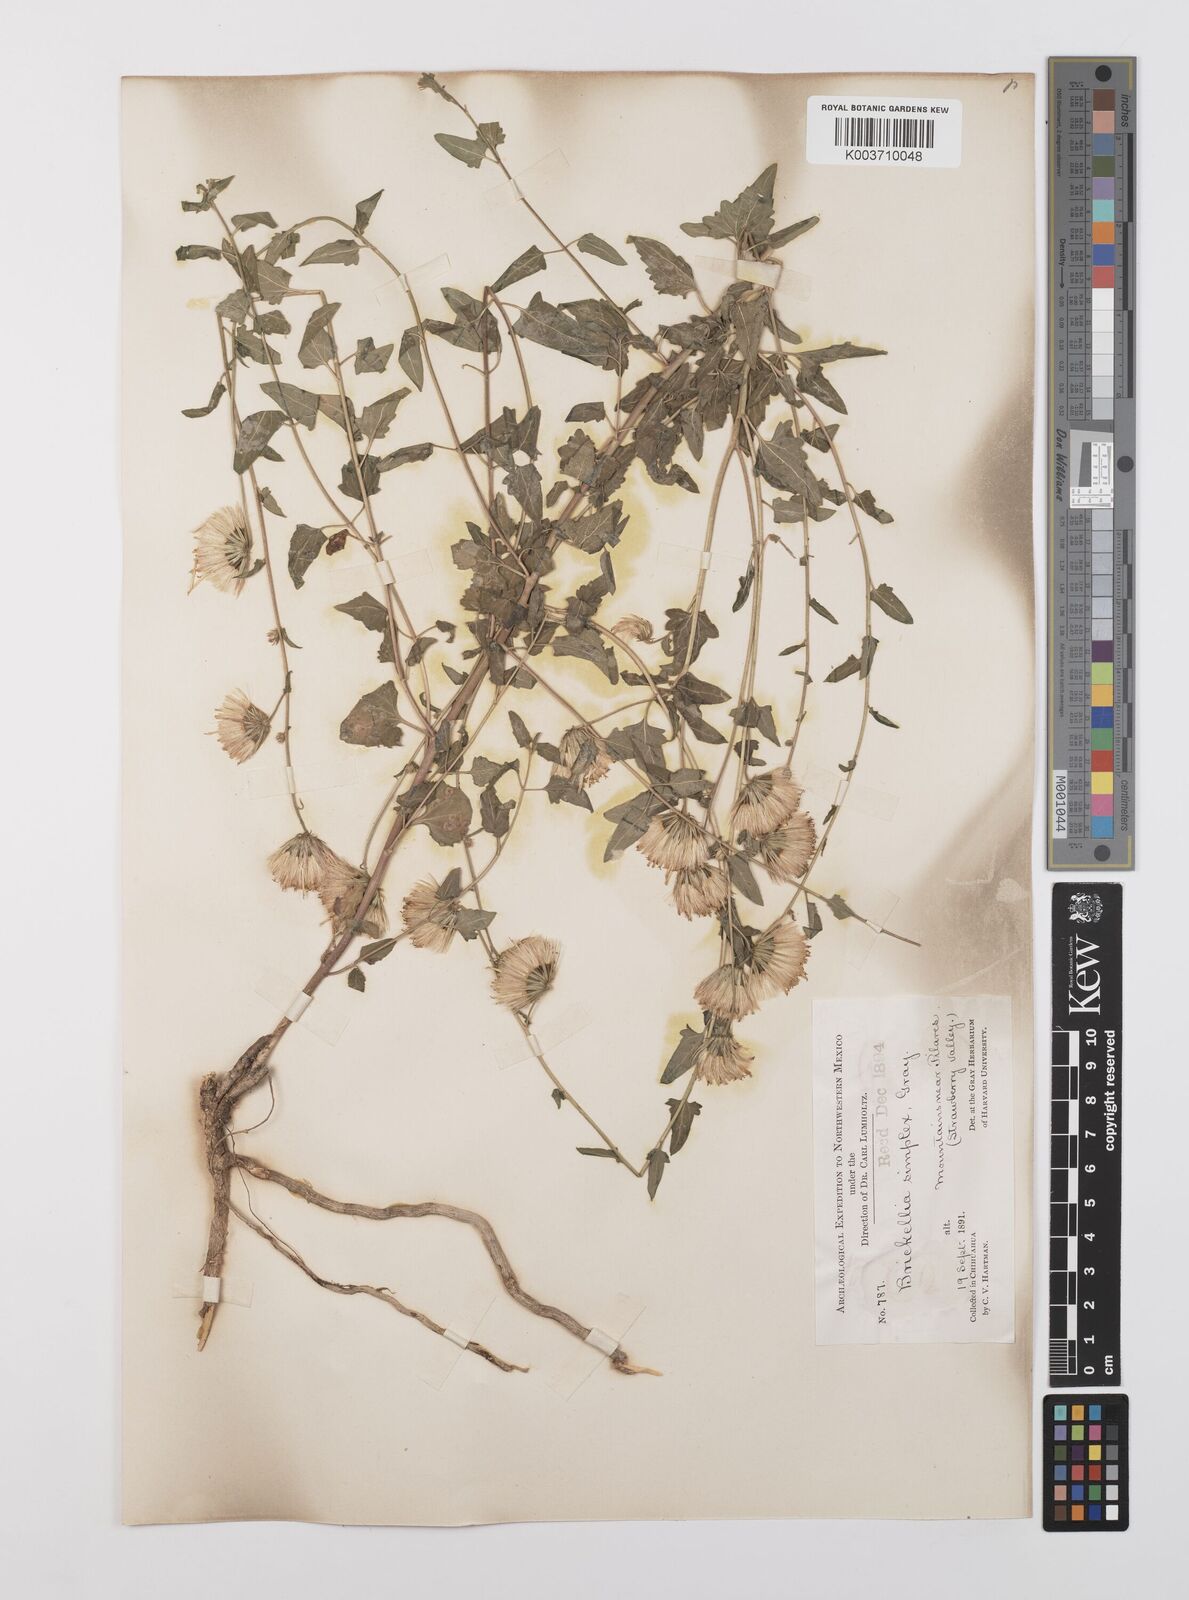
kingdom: Plantae
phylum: Tracheophyta
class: Magnoliopsida
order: Asterales
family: Asteraceae
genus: Brickellia
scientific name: Brickellia simplex
